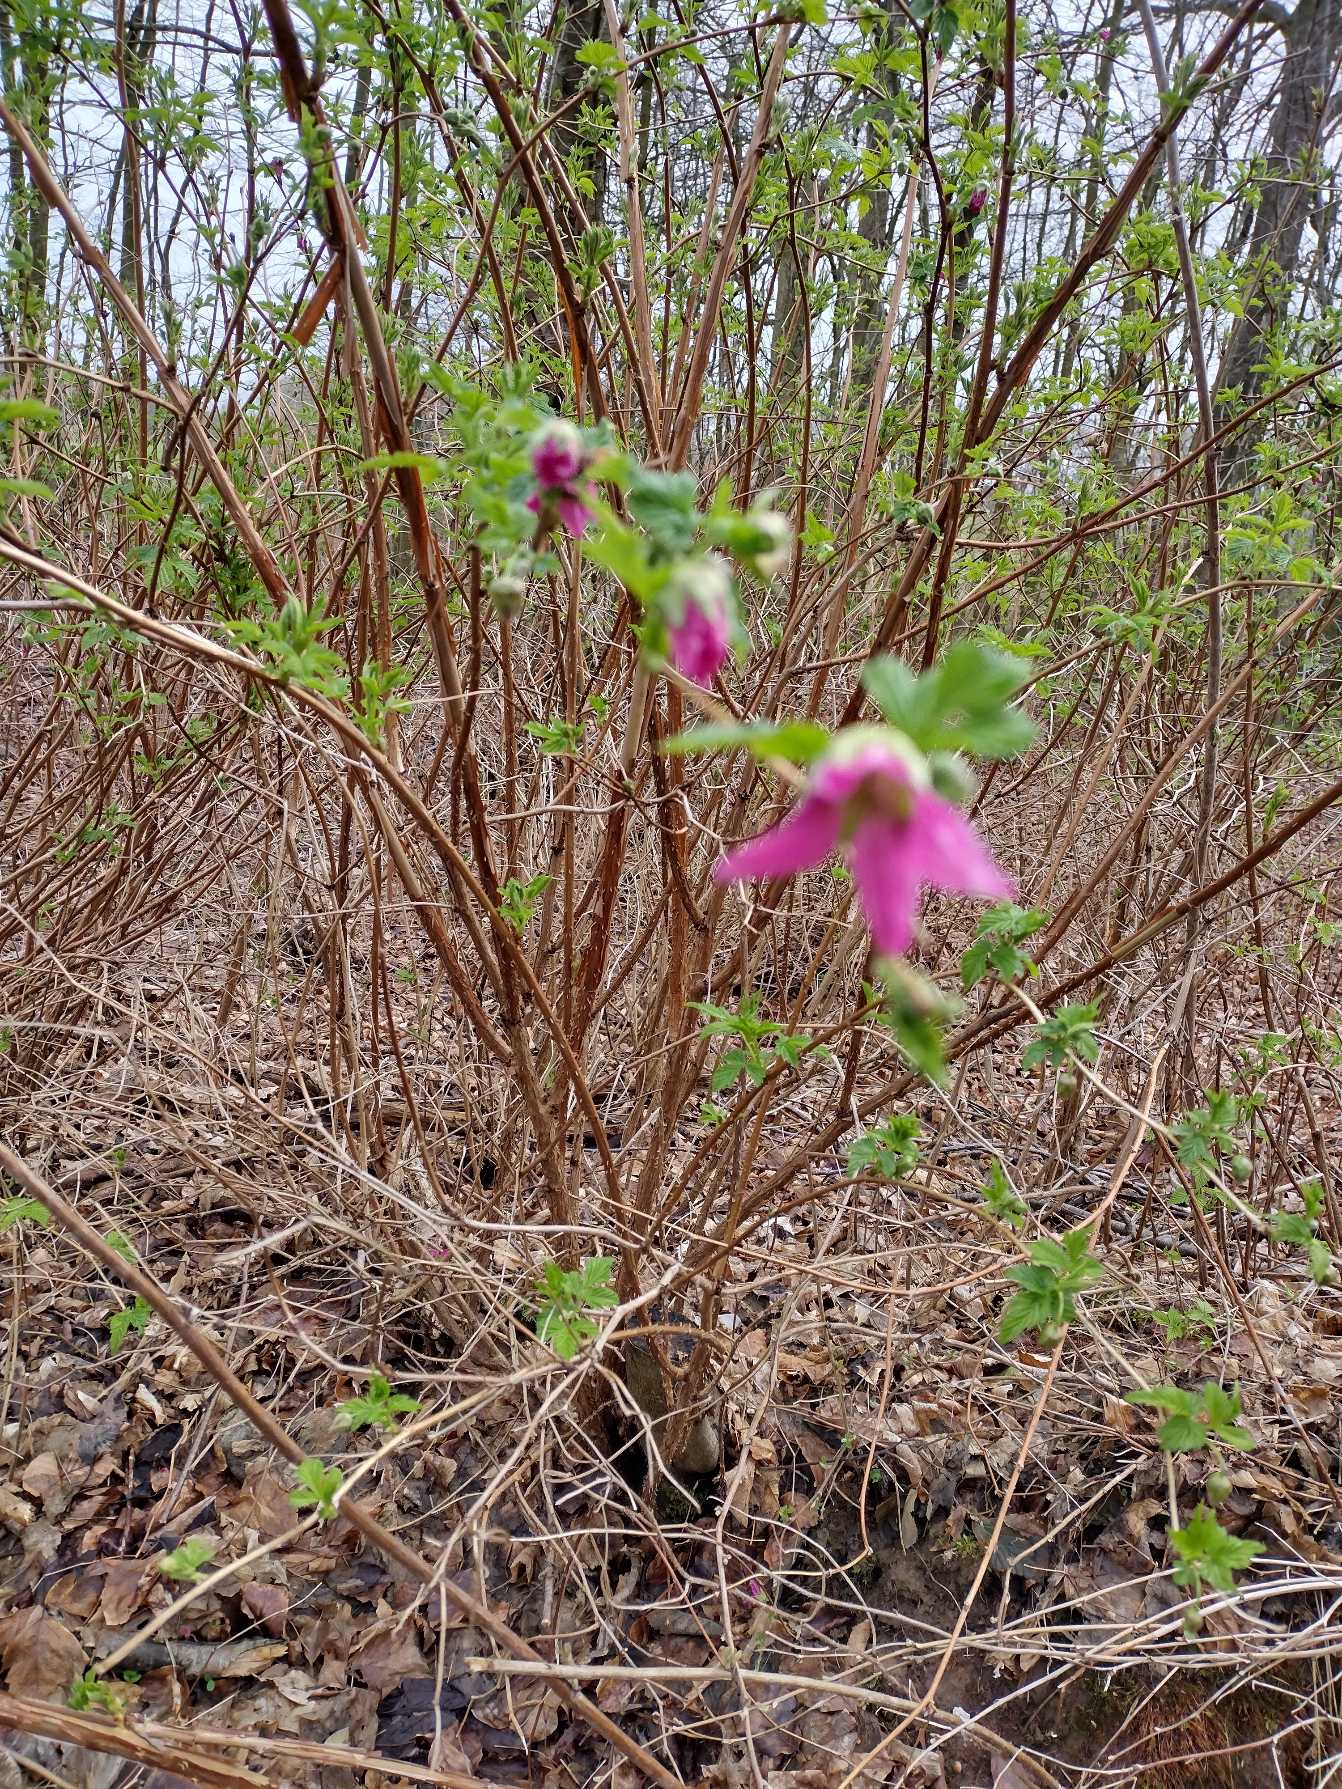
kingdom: Plantae
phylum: Tracheophyta
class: Magnoliopsida
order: Rosales
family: Rosaceae
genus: Rubus
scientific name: Rubus spectabilis
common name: Laksebær
